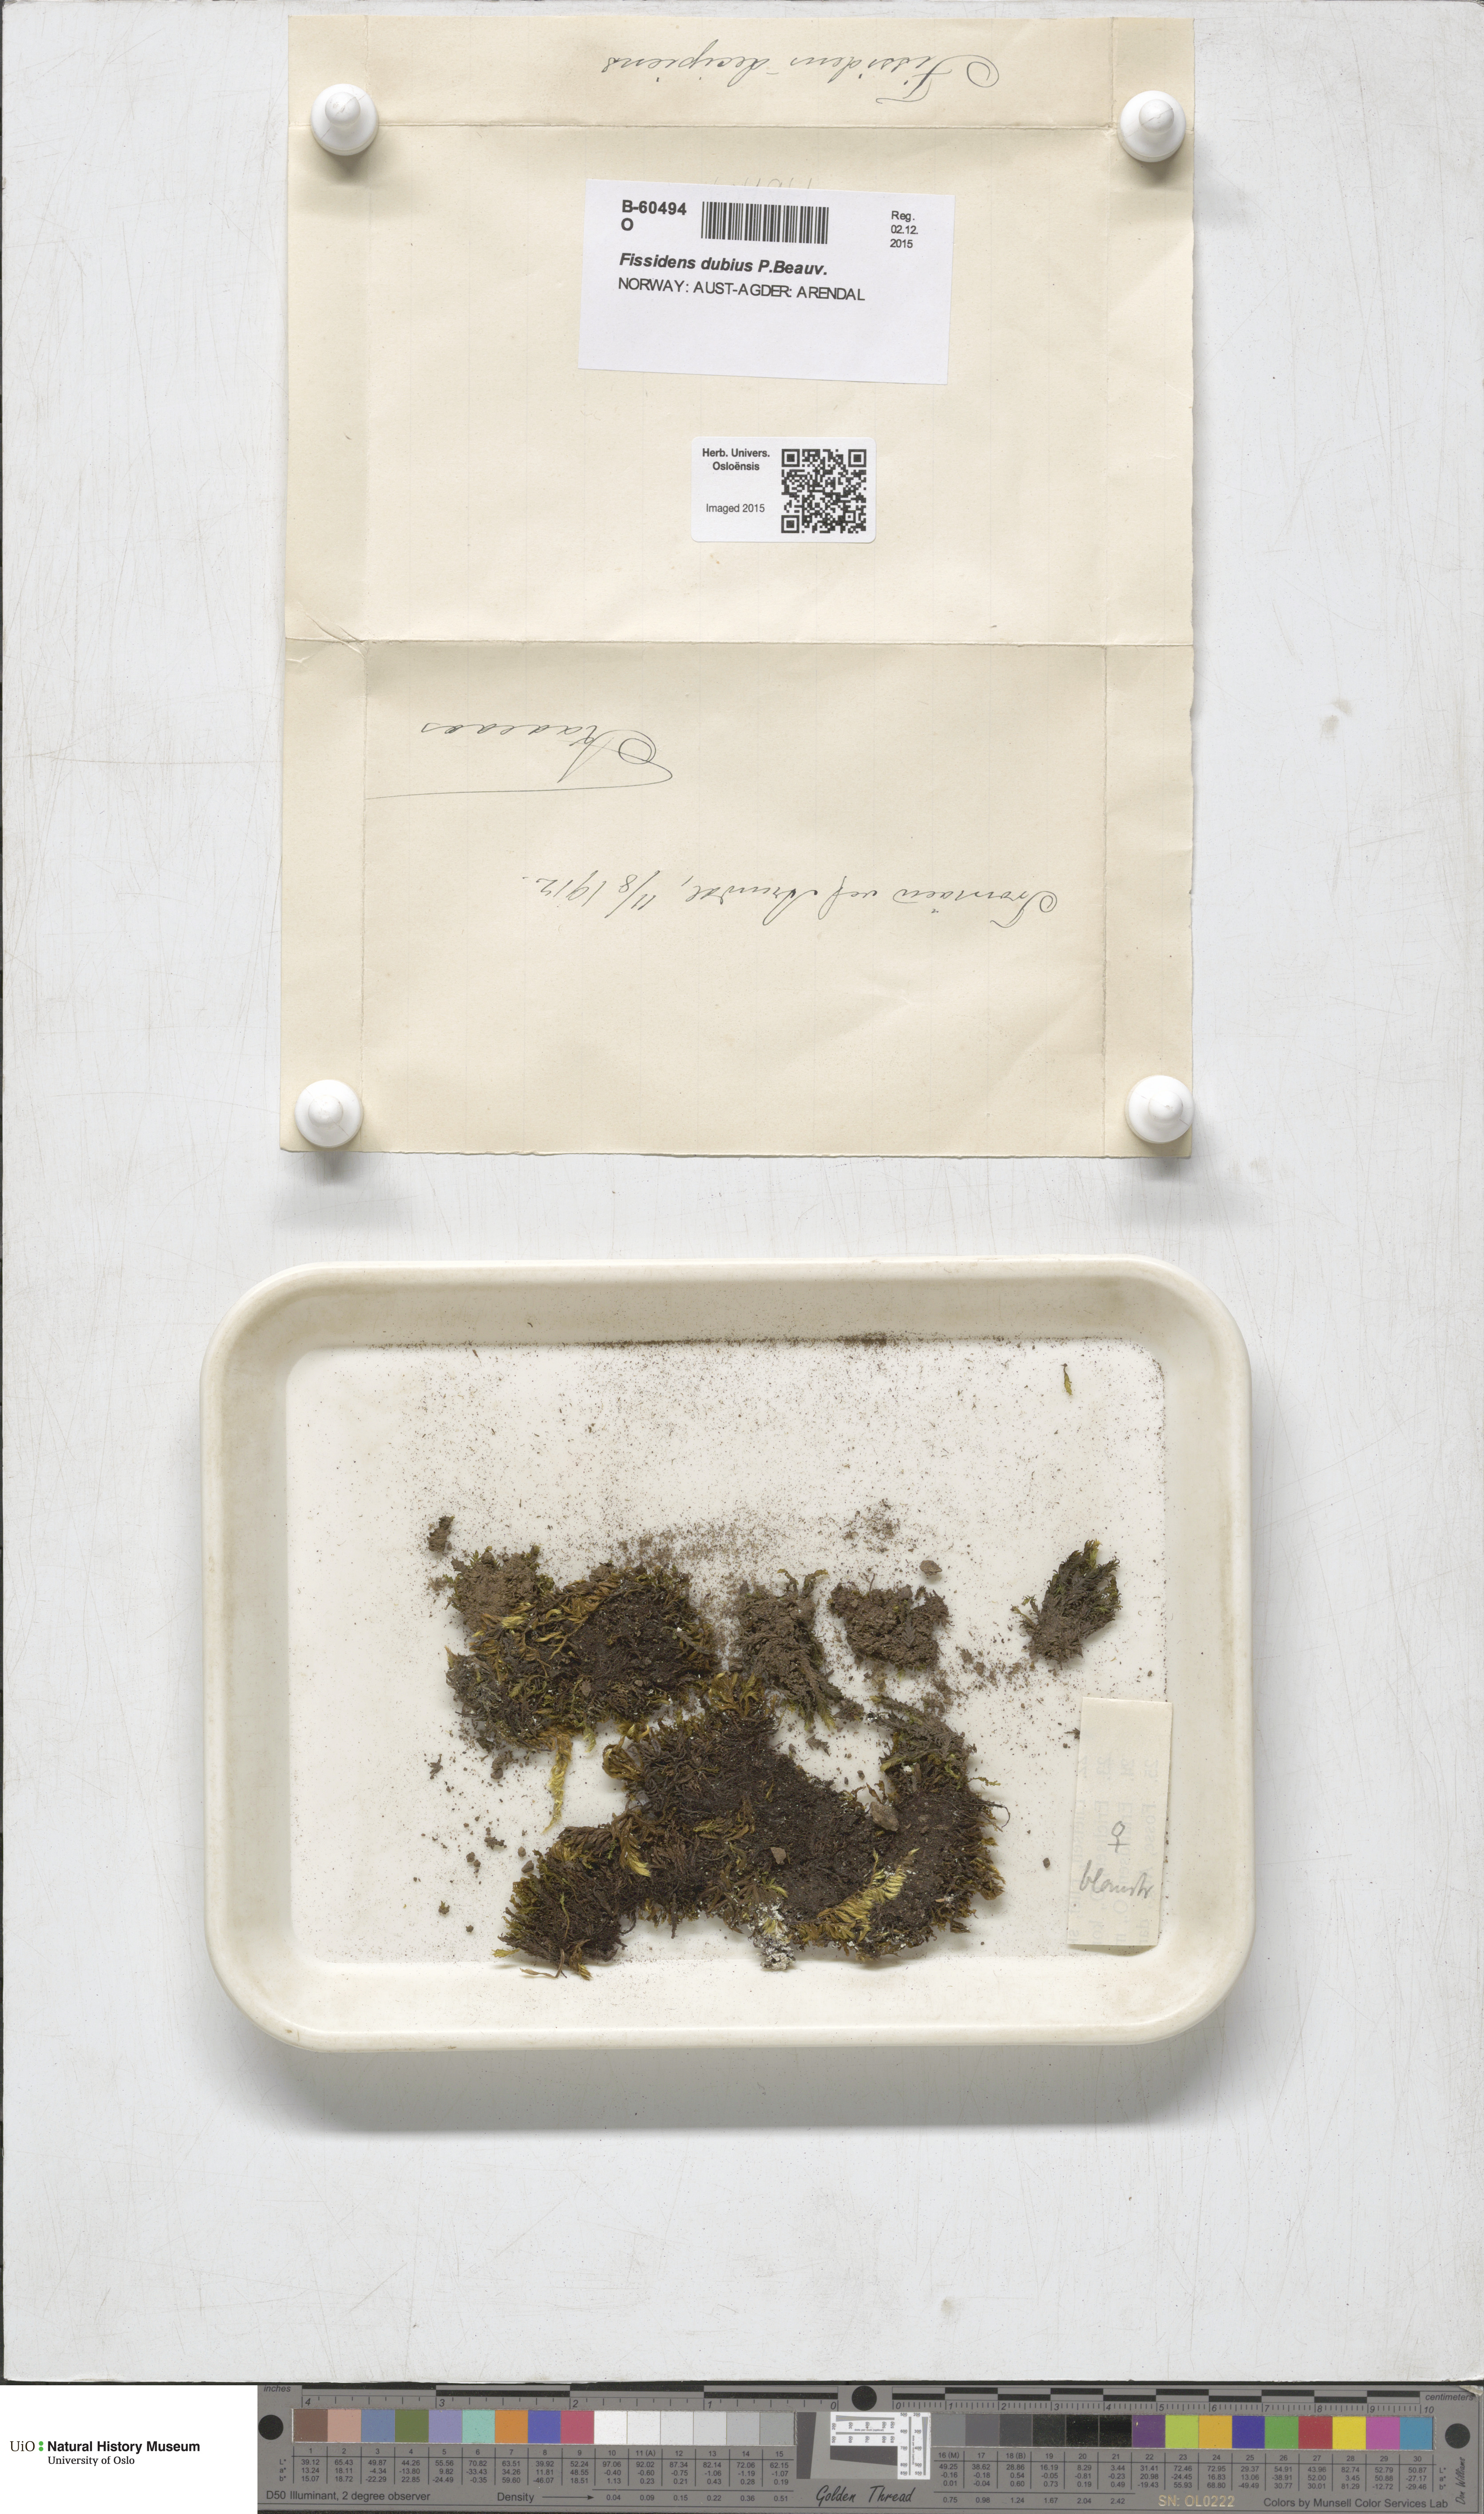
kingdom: Plantae
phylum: Bryophyta
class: Bryopsida
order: Dicranales
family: Fissidentaceae
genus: Fissidens
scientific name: Fissidens dubius
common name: Rock pocket moss
